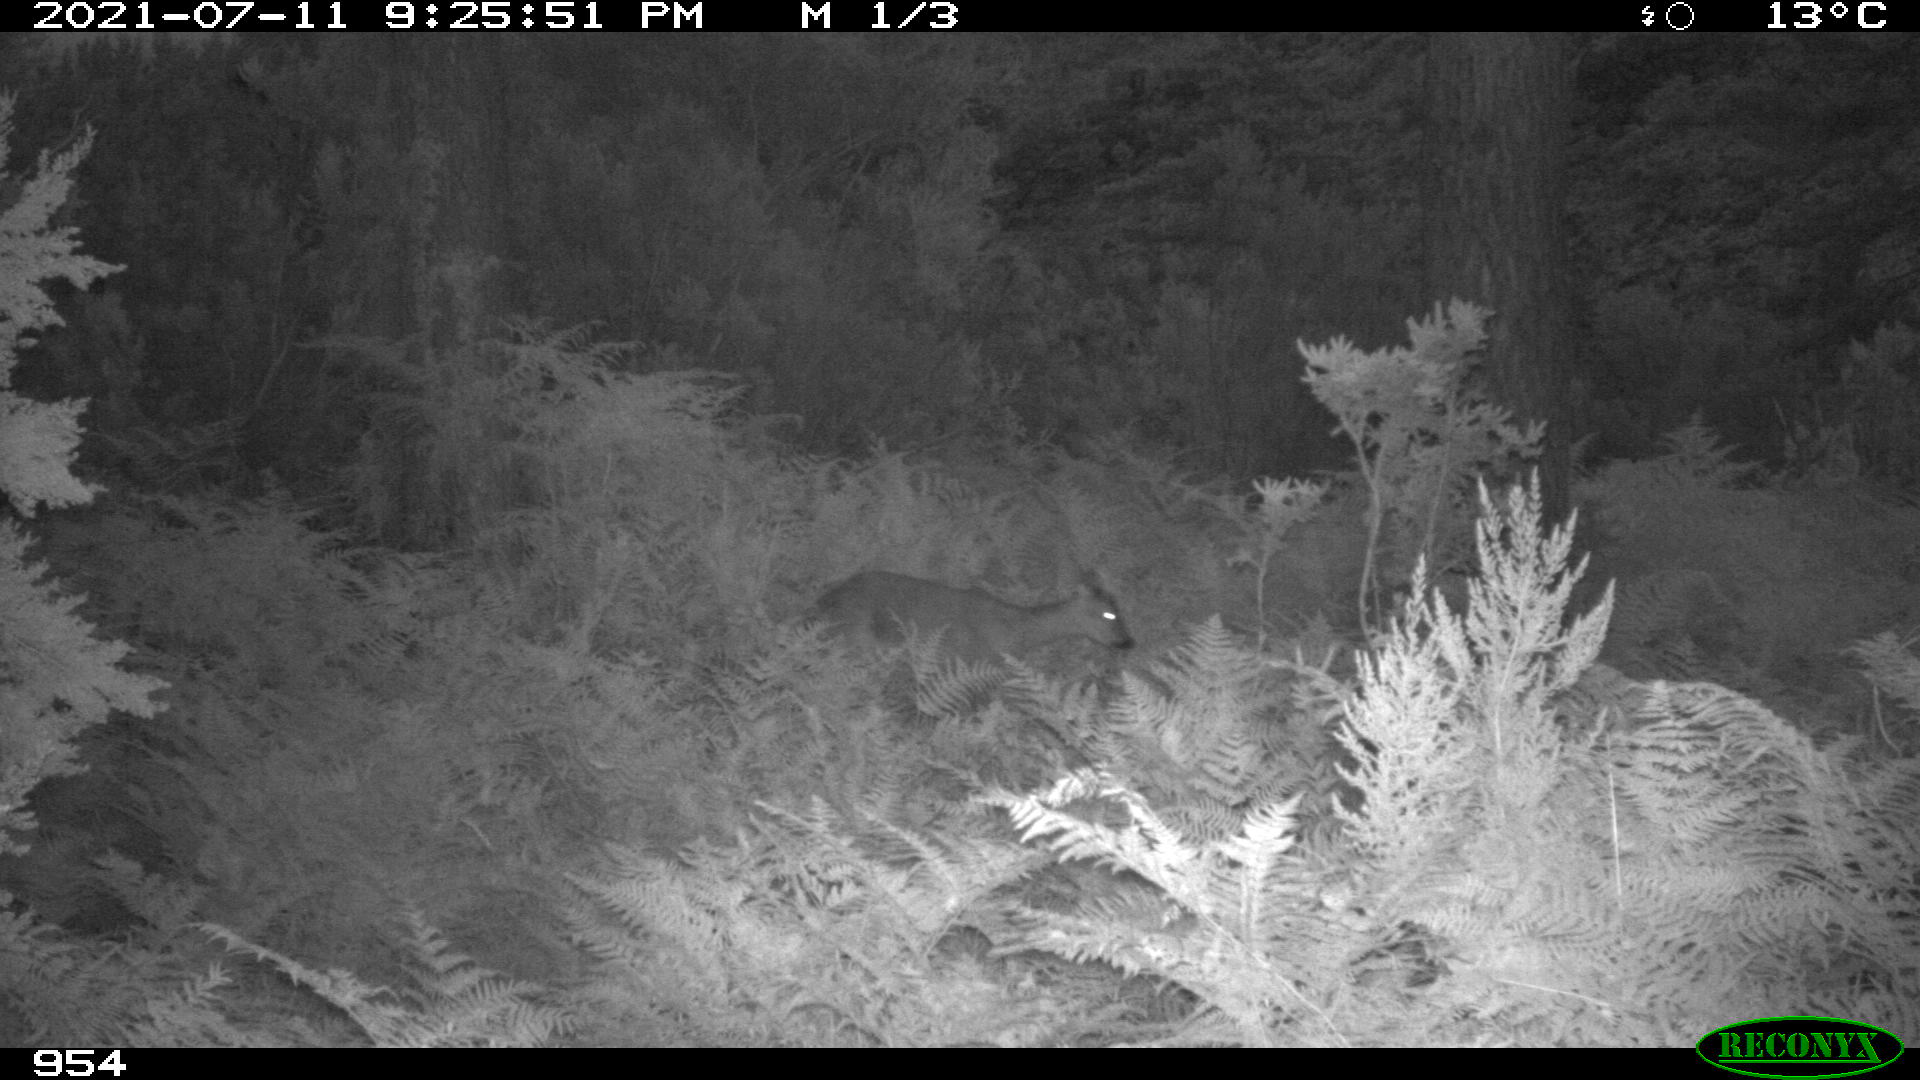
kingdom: Animalia
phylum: Chordata
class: Mammalia
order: Artiodactyla
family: Cervidae
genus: Capreolus
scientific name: Capreolus capreolus
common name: Western roe deer
